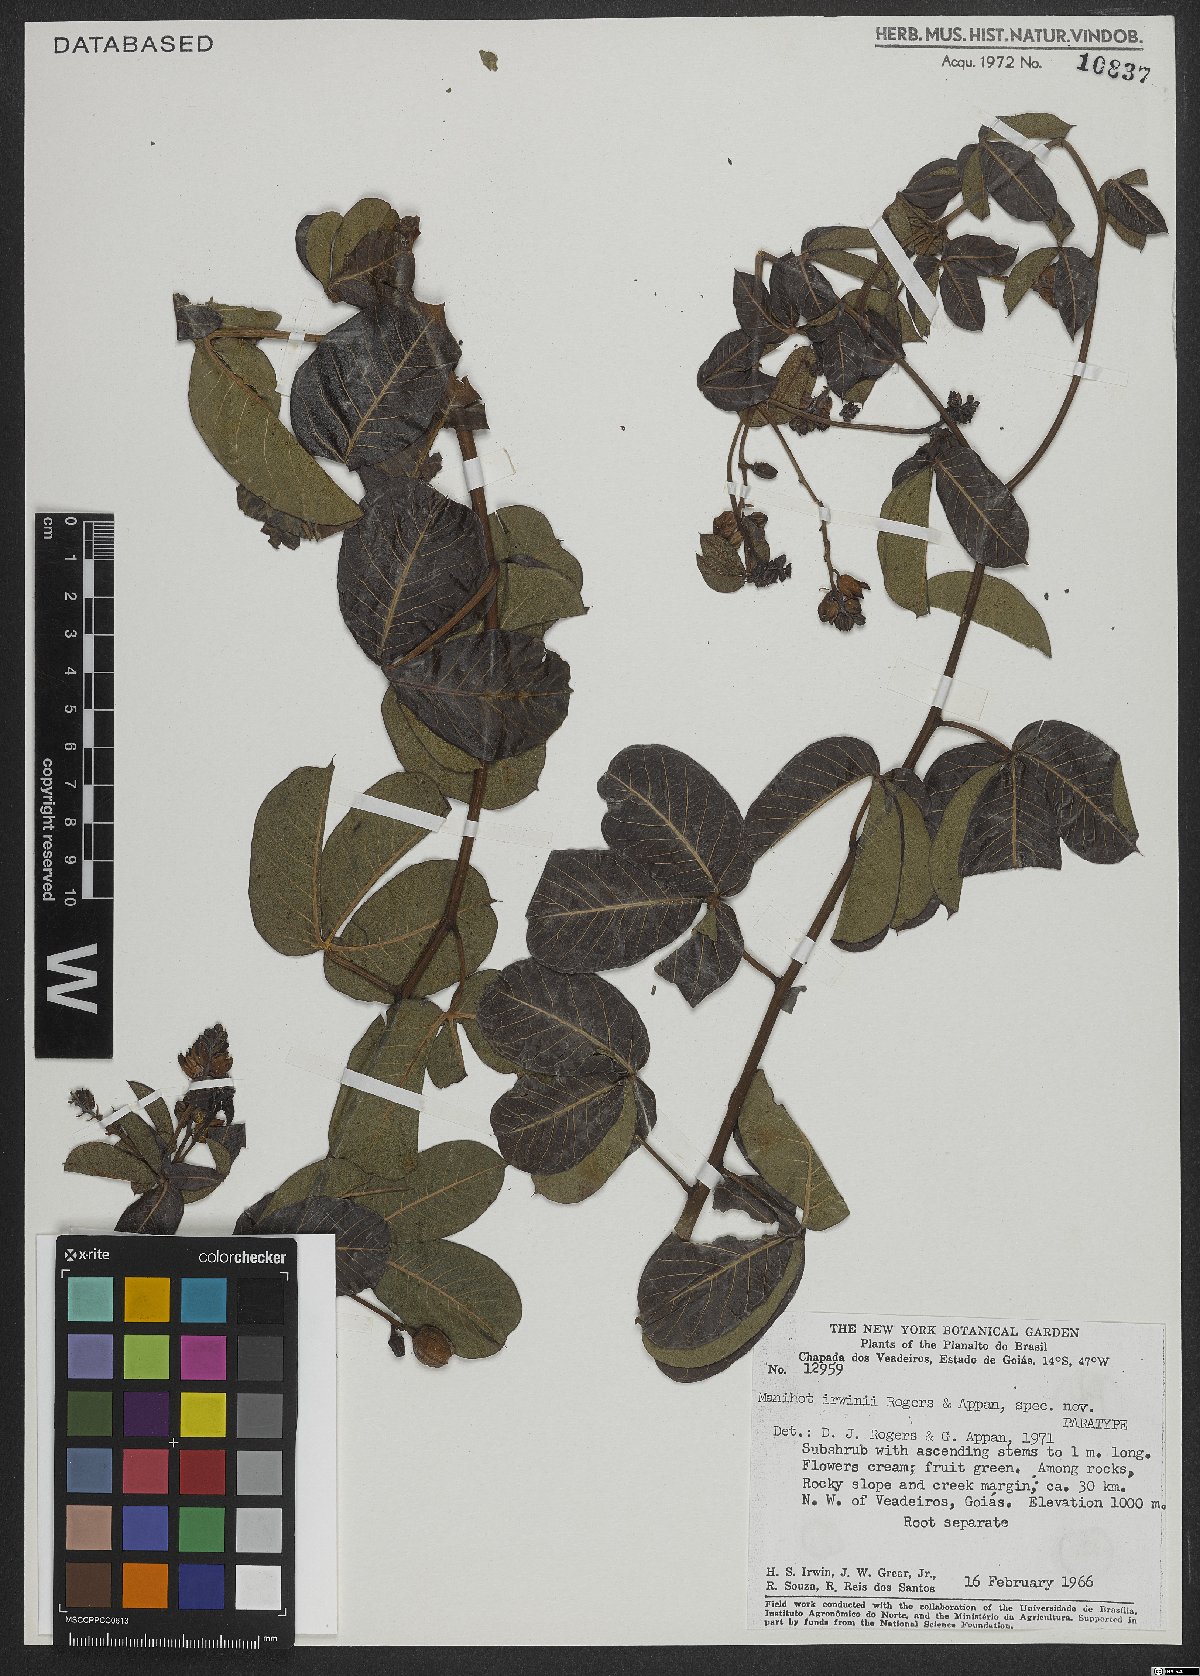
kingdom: Plantae
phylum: Tracheophyta
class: Magnoliopsida
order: Malpighiales
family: Euphorbiaceae
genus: Manihot
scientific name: Manihot irwinii
